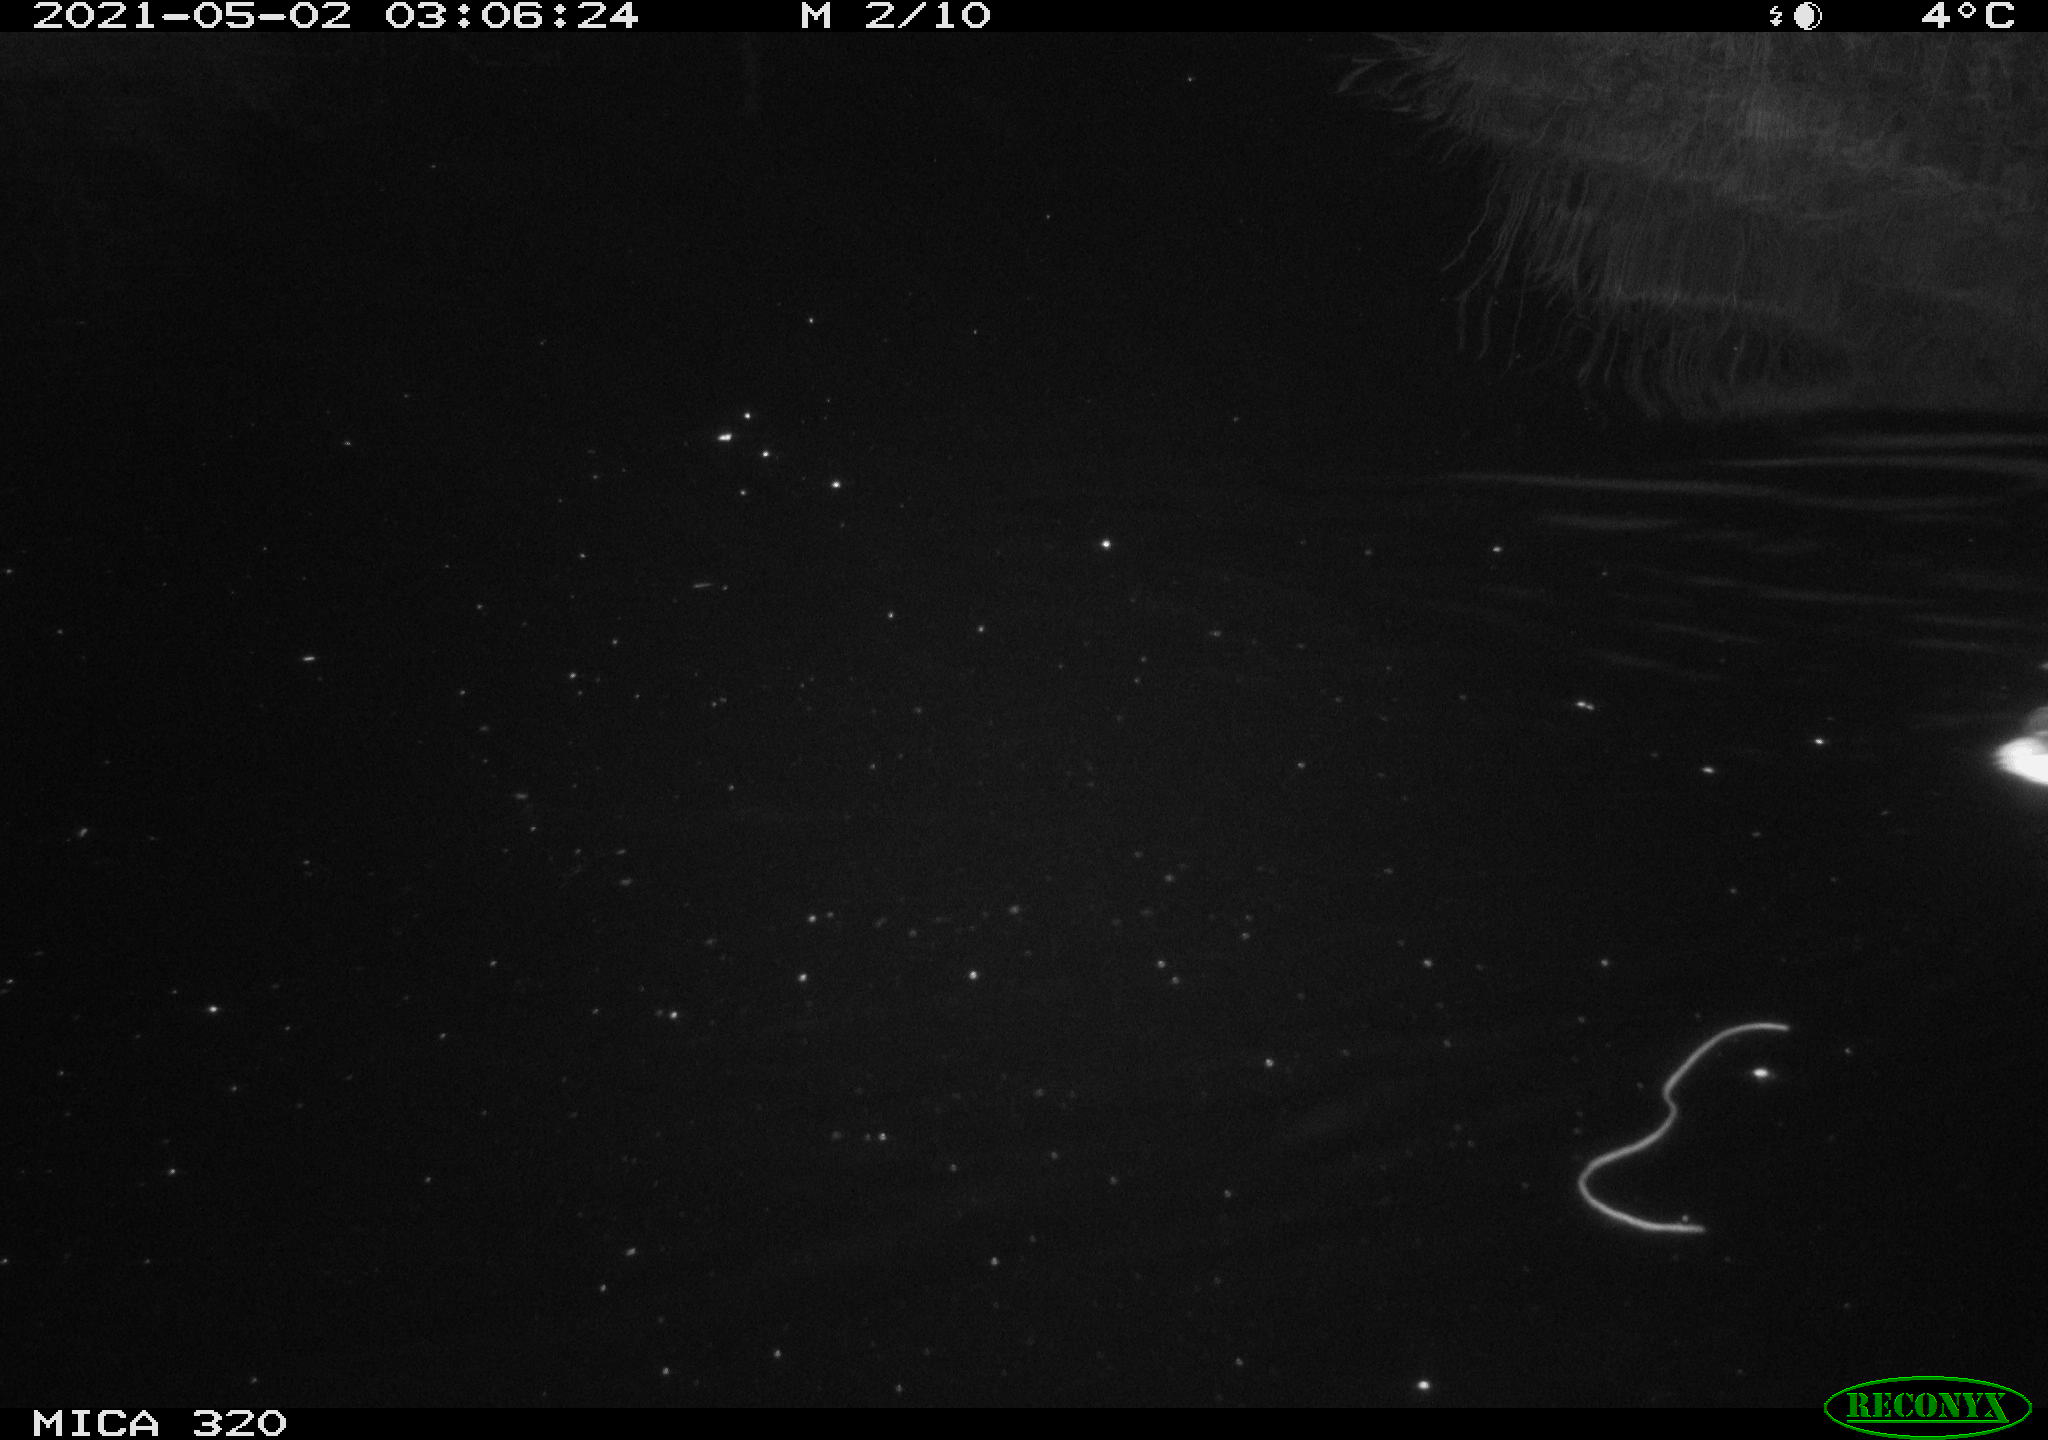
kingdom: Animalia
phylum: Chordata
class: Aves
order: Anseriformes
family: Anatidae
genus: Anas
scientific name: Anas platyrhynchos
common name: Mallard
